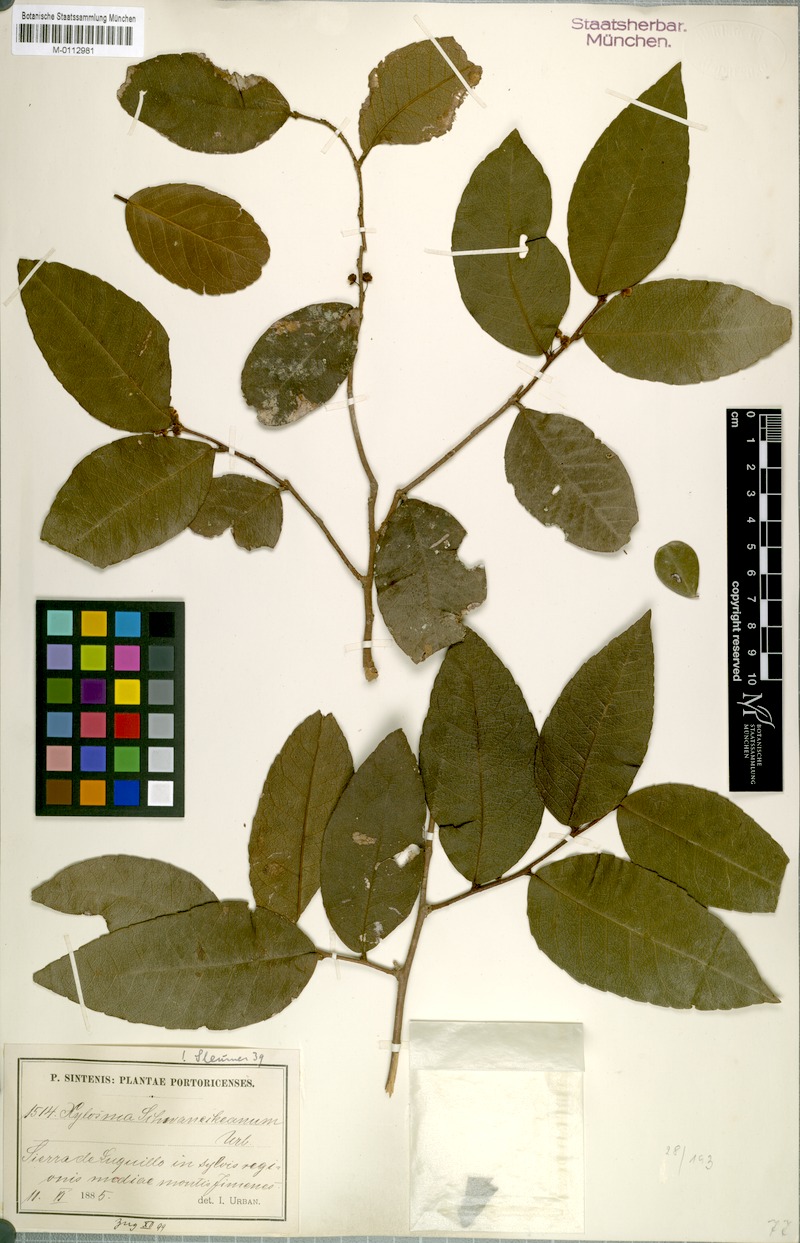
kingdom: Plantae
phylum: Tracheophyta
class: Magnoliopsida
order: Malpighiales
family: Salicaceae
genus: Xylosma
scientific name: Xylosma schwaneckeana
